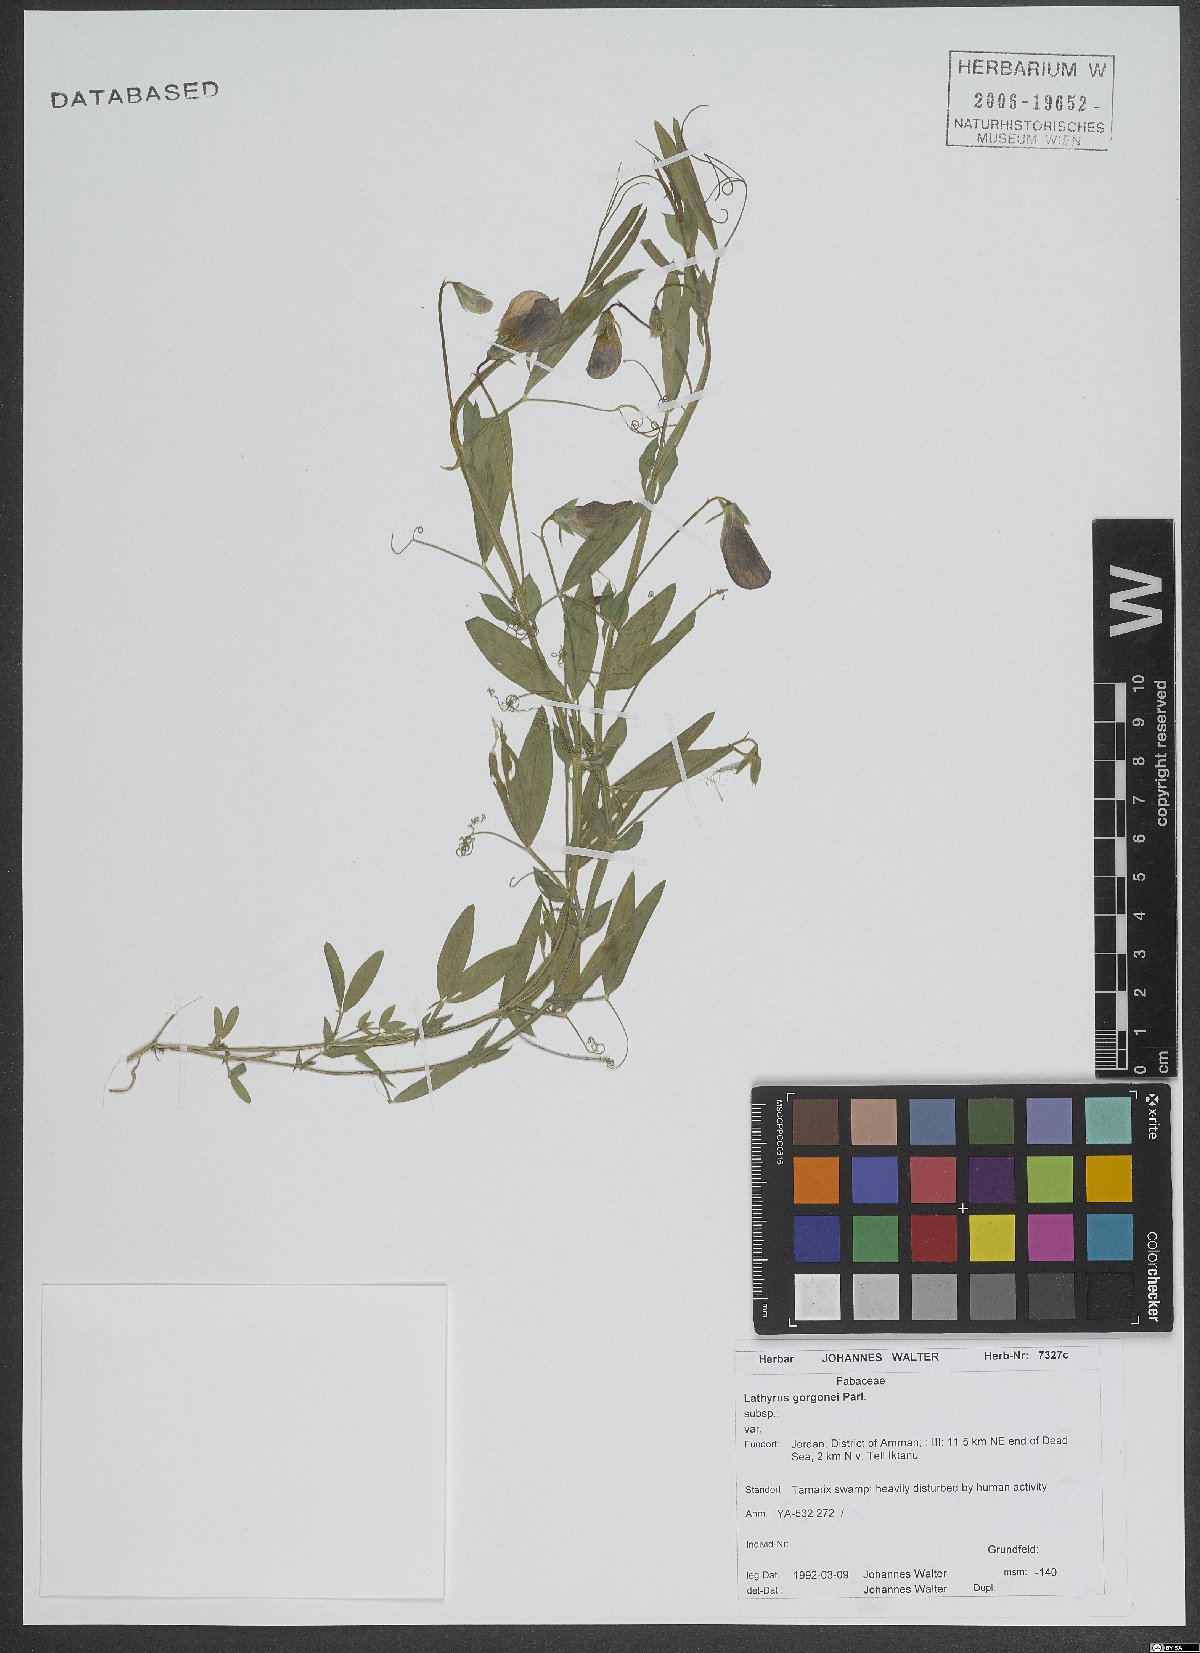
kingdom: Plantae
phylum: Tracheophyta
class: Magnoliopsida
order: Fabales
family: Fabaceae
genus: Lathyrus
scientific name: Lathyrus gorgoni
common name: Rare pea
